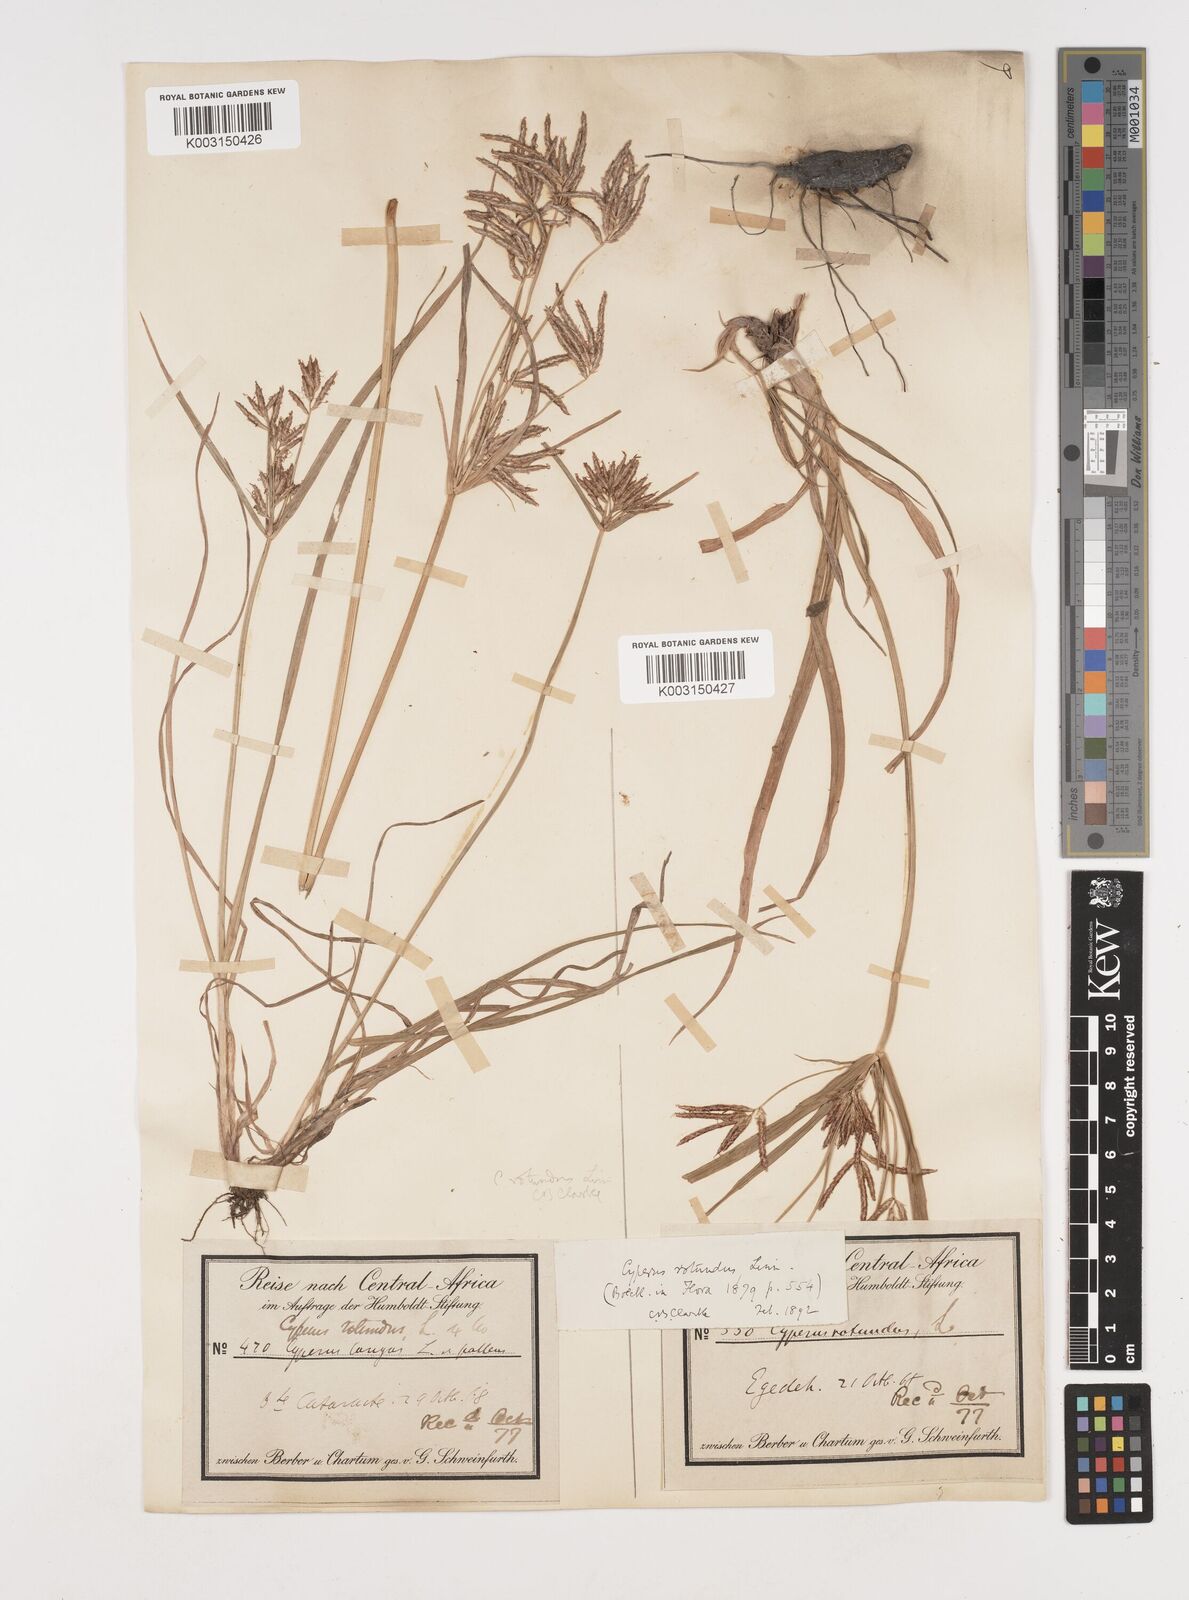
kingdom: Plantae
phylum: Tracheophyta
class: Liliopsida
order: Poales
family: Cyperaceae
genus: Cyperus
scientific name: Cyperus rotundus
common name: Nutgrass
